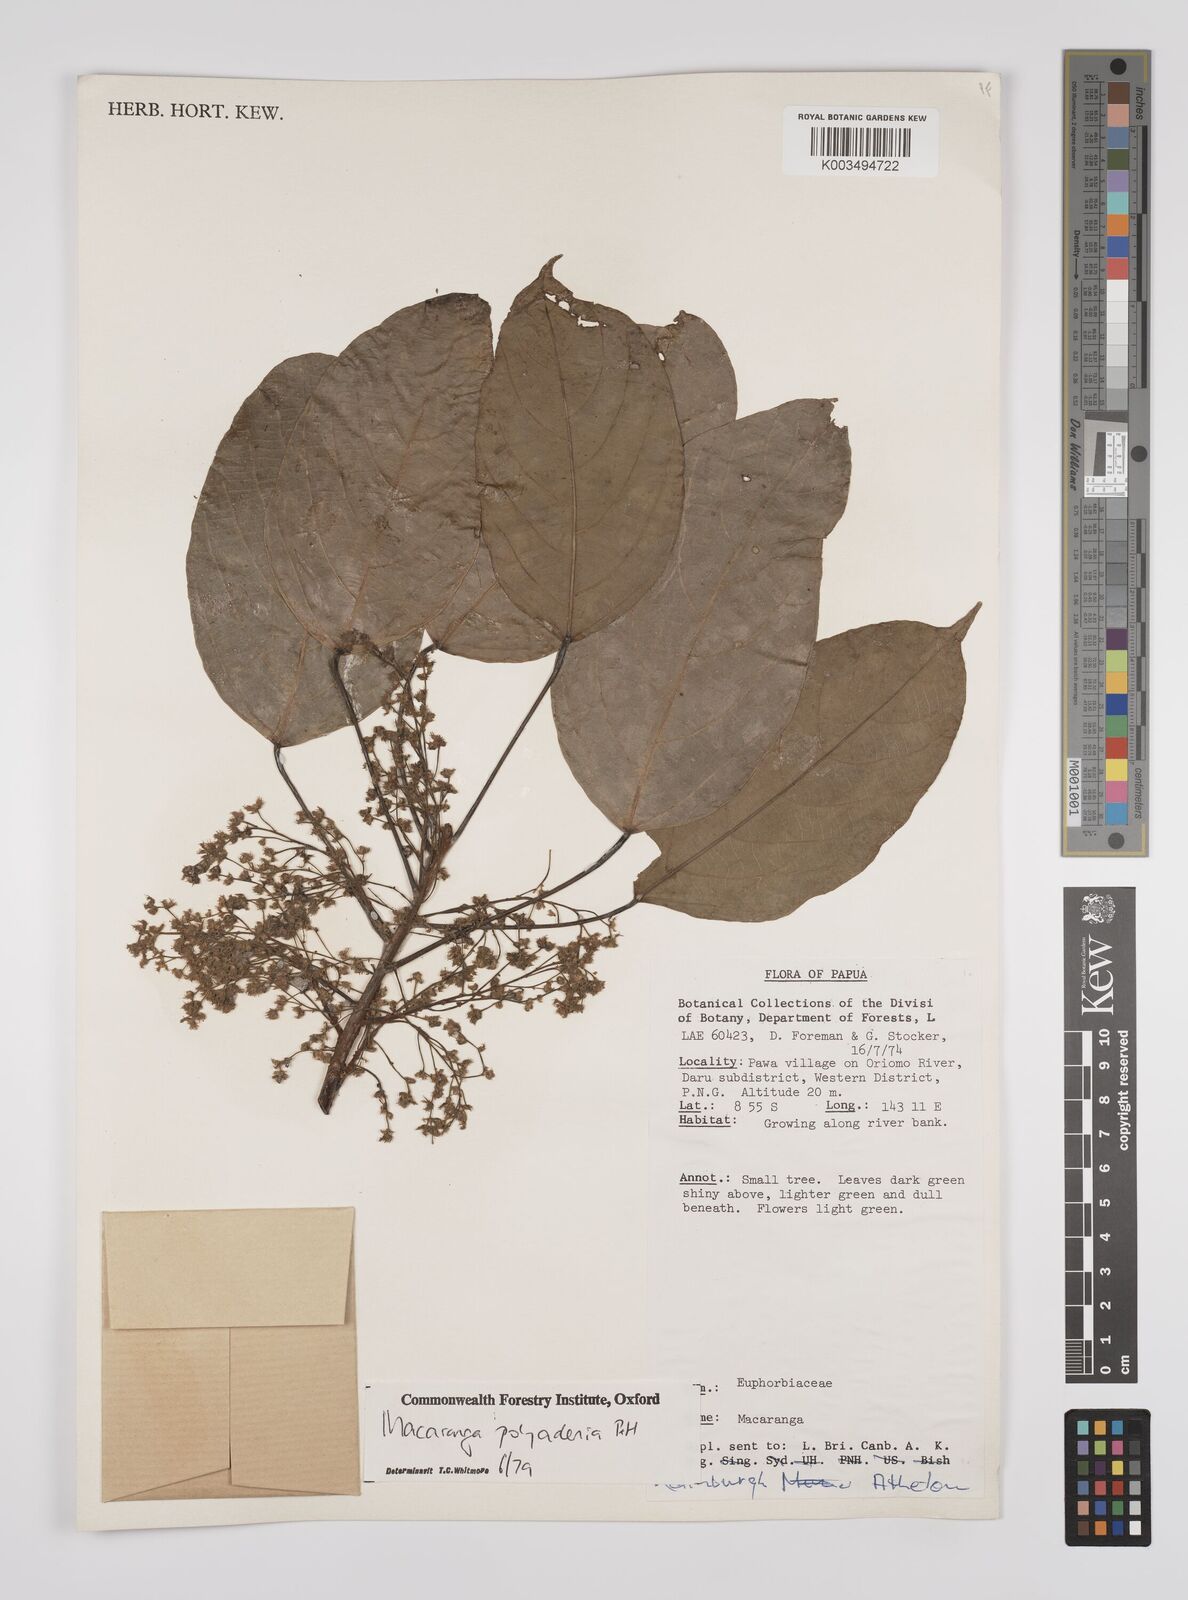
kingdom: Plantae
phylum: Tracheophyta
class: Magnoliopsida
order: Malpighiales
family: Euphorbiaceae
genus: Macaranga
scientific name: Macaranga polyadenia
